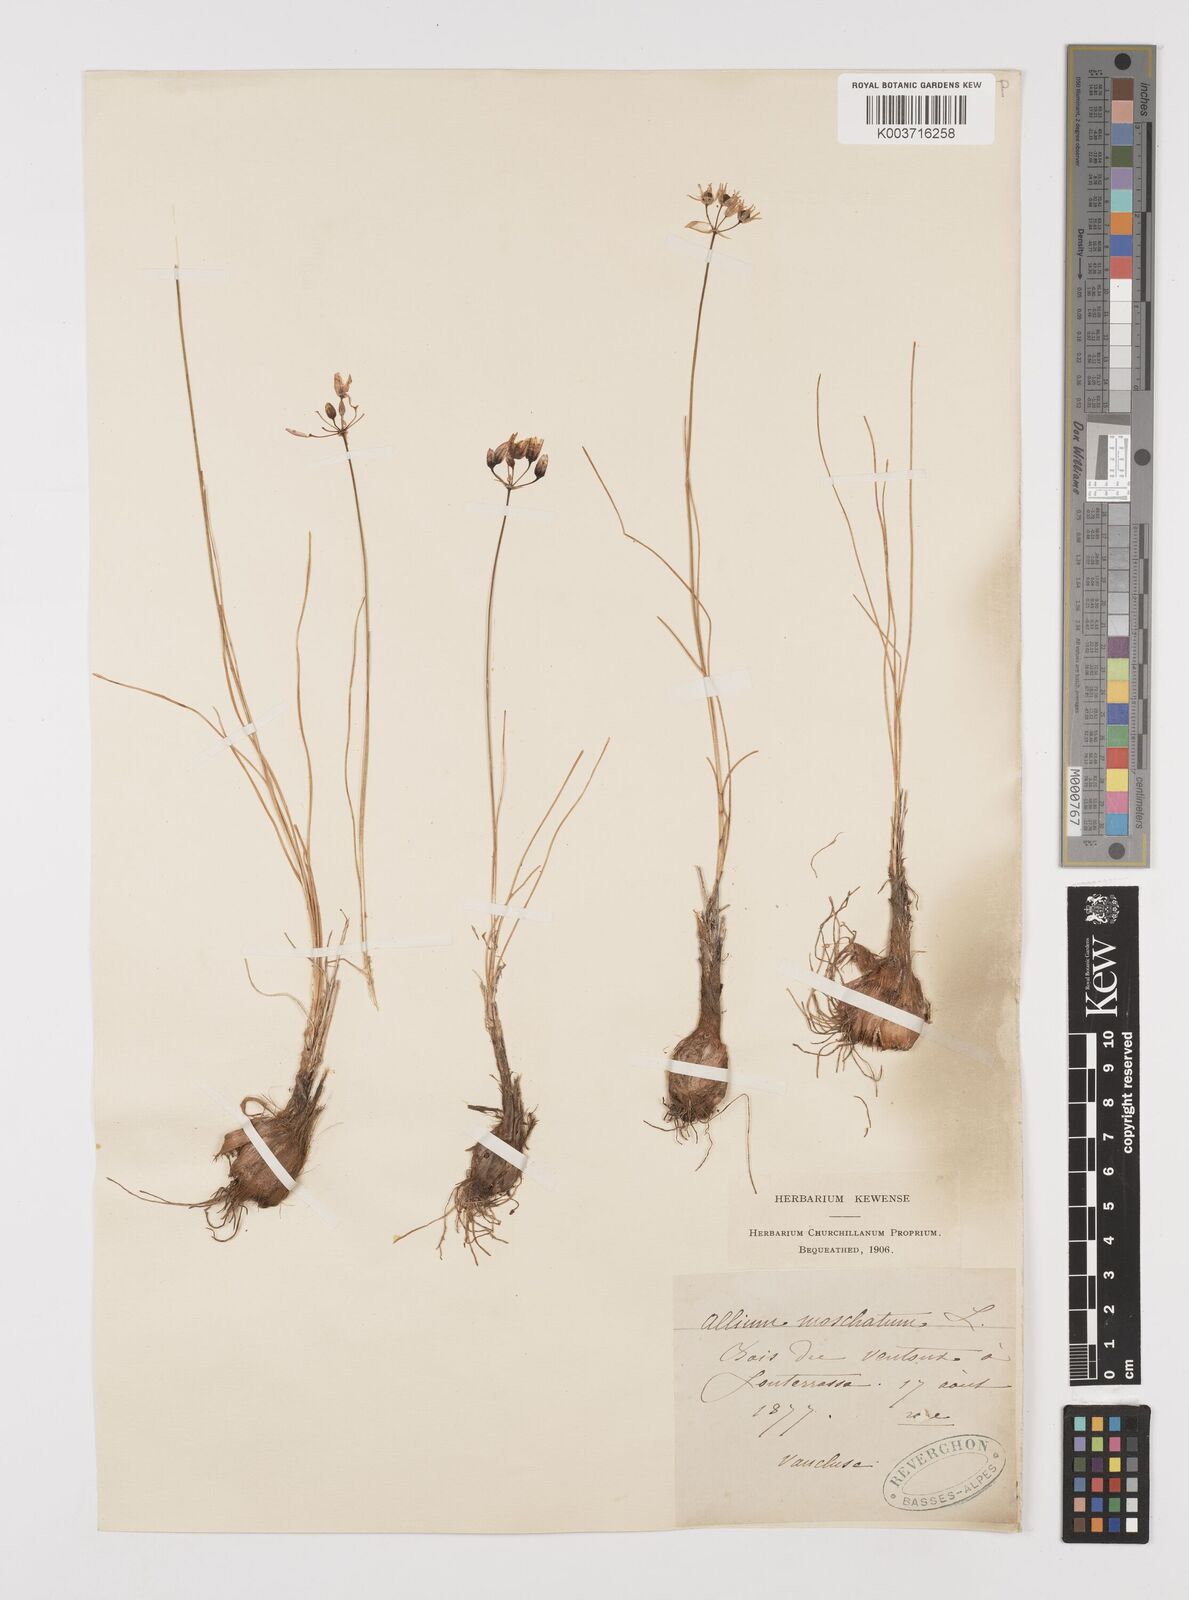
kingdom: Plantae
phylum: Tracheophyta
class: Liliopsida
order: Asparagales
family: Amaryllidaceae
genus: Allium
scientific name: Allium moschatum
